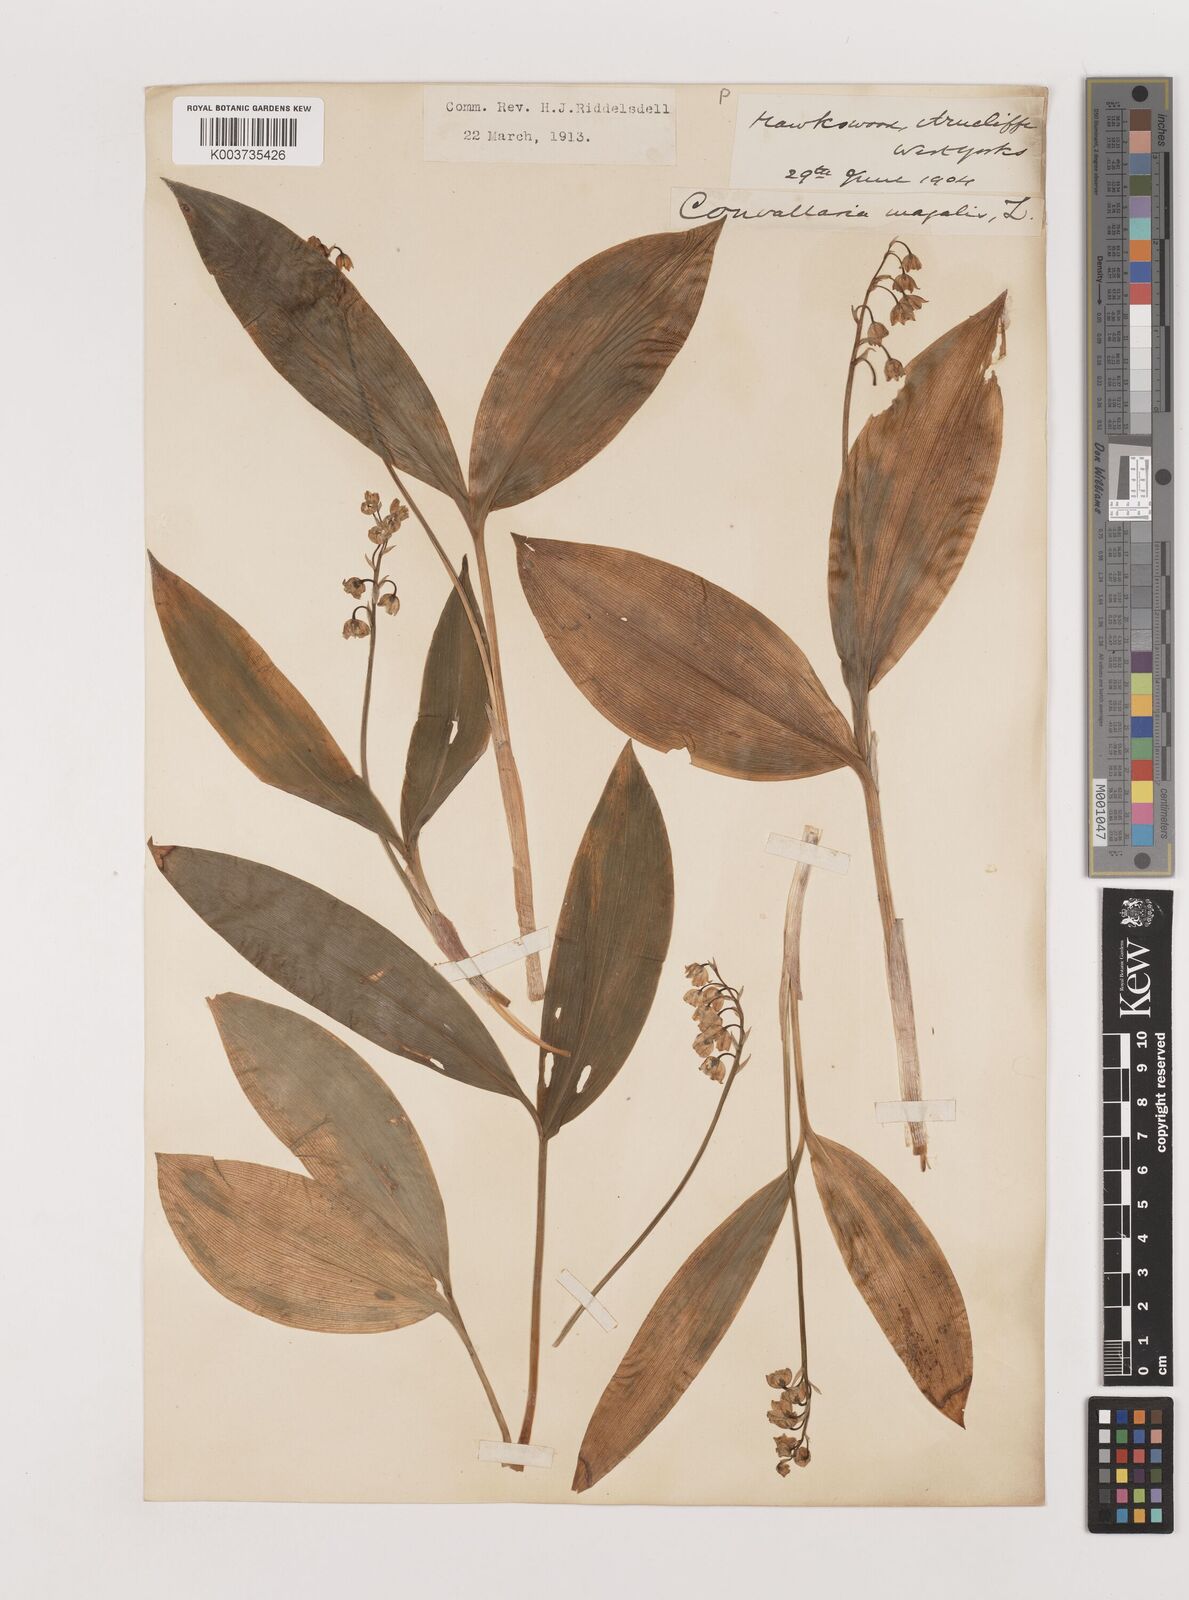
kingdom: Plantae
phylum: Tracheophyta
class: Liliopsida
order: Asparagales
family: Asparagaceae
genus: Convallaria
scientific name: Convallaria majalis
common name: Lily-of-the-valley
